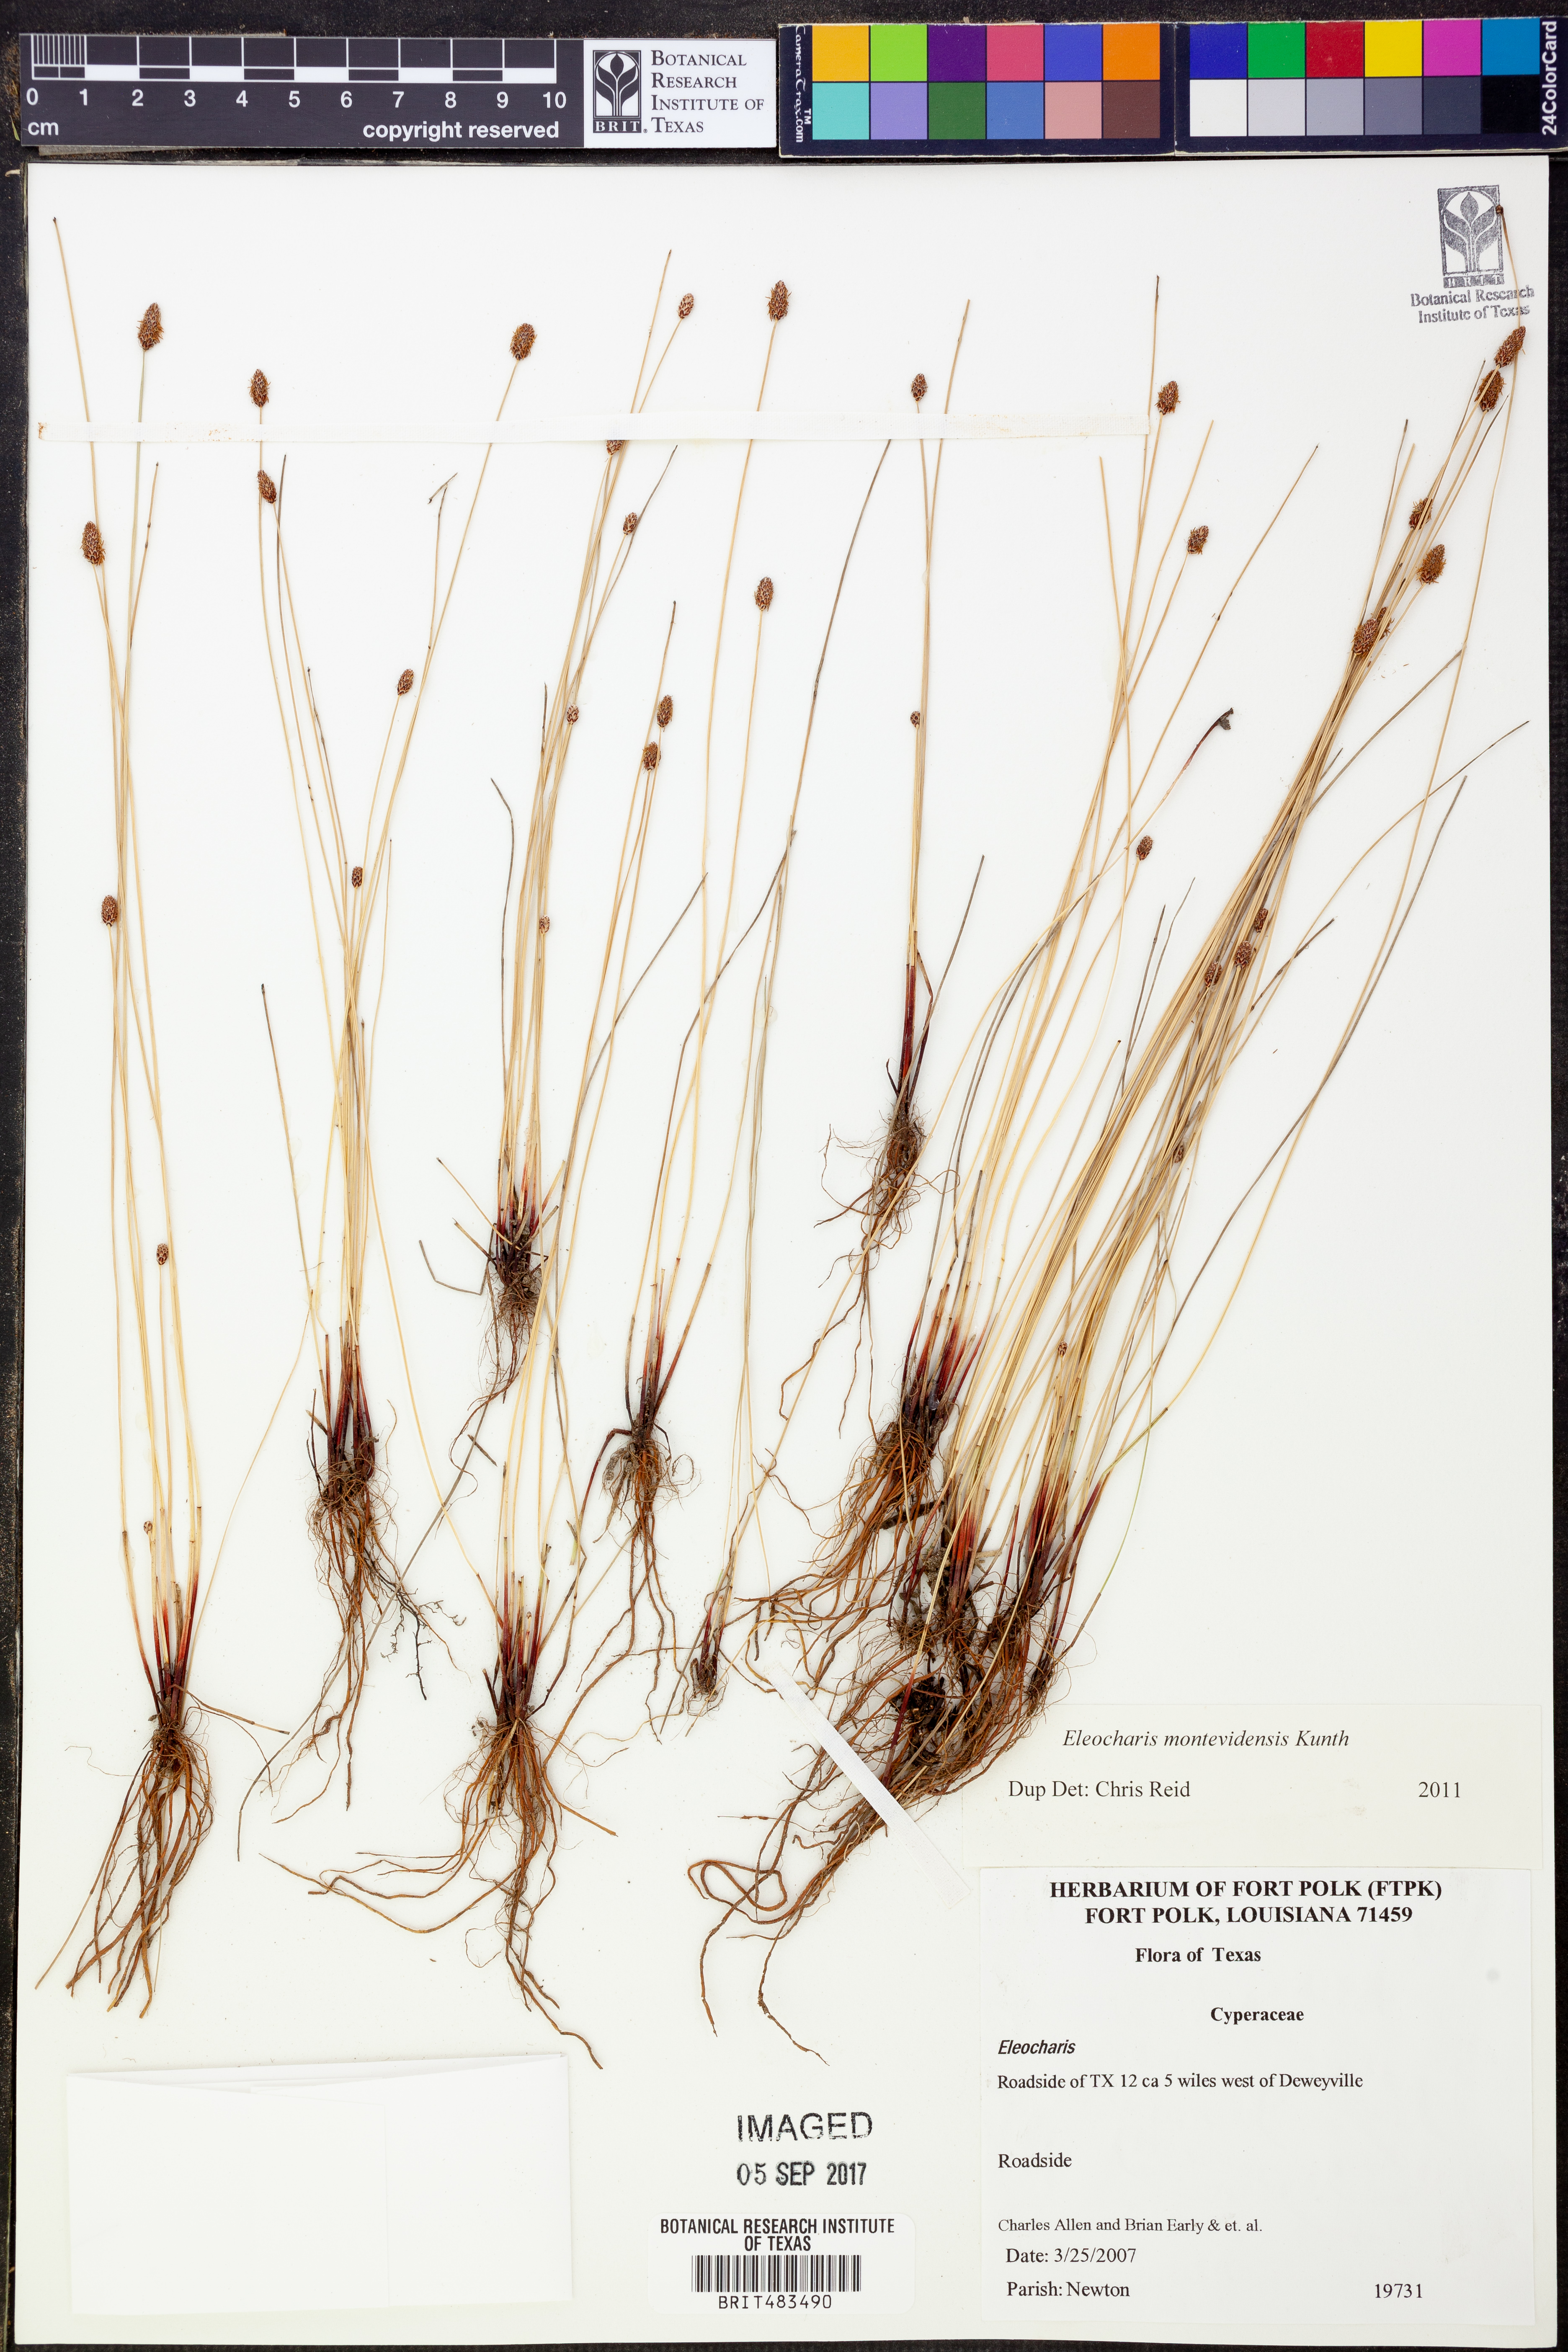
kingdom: Plantae
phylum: Tracheophyta
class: Liliopsida
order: Poales
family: Cyperaceae
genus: Eleocharis
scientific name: Eleocharis montevidensis
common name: Sand spike-rush
